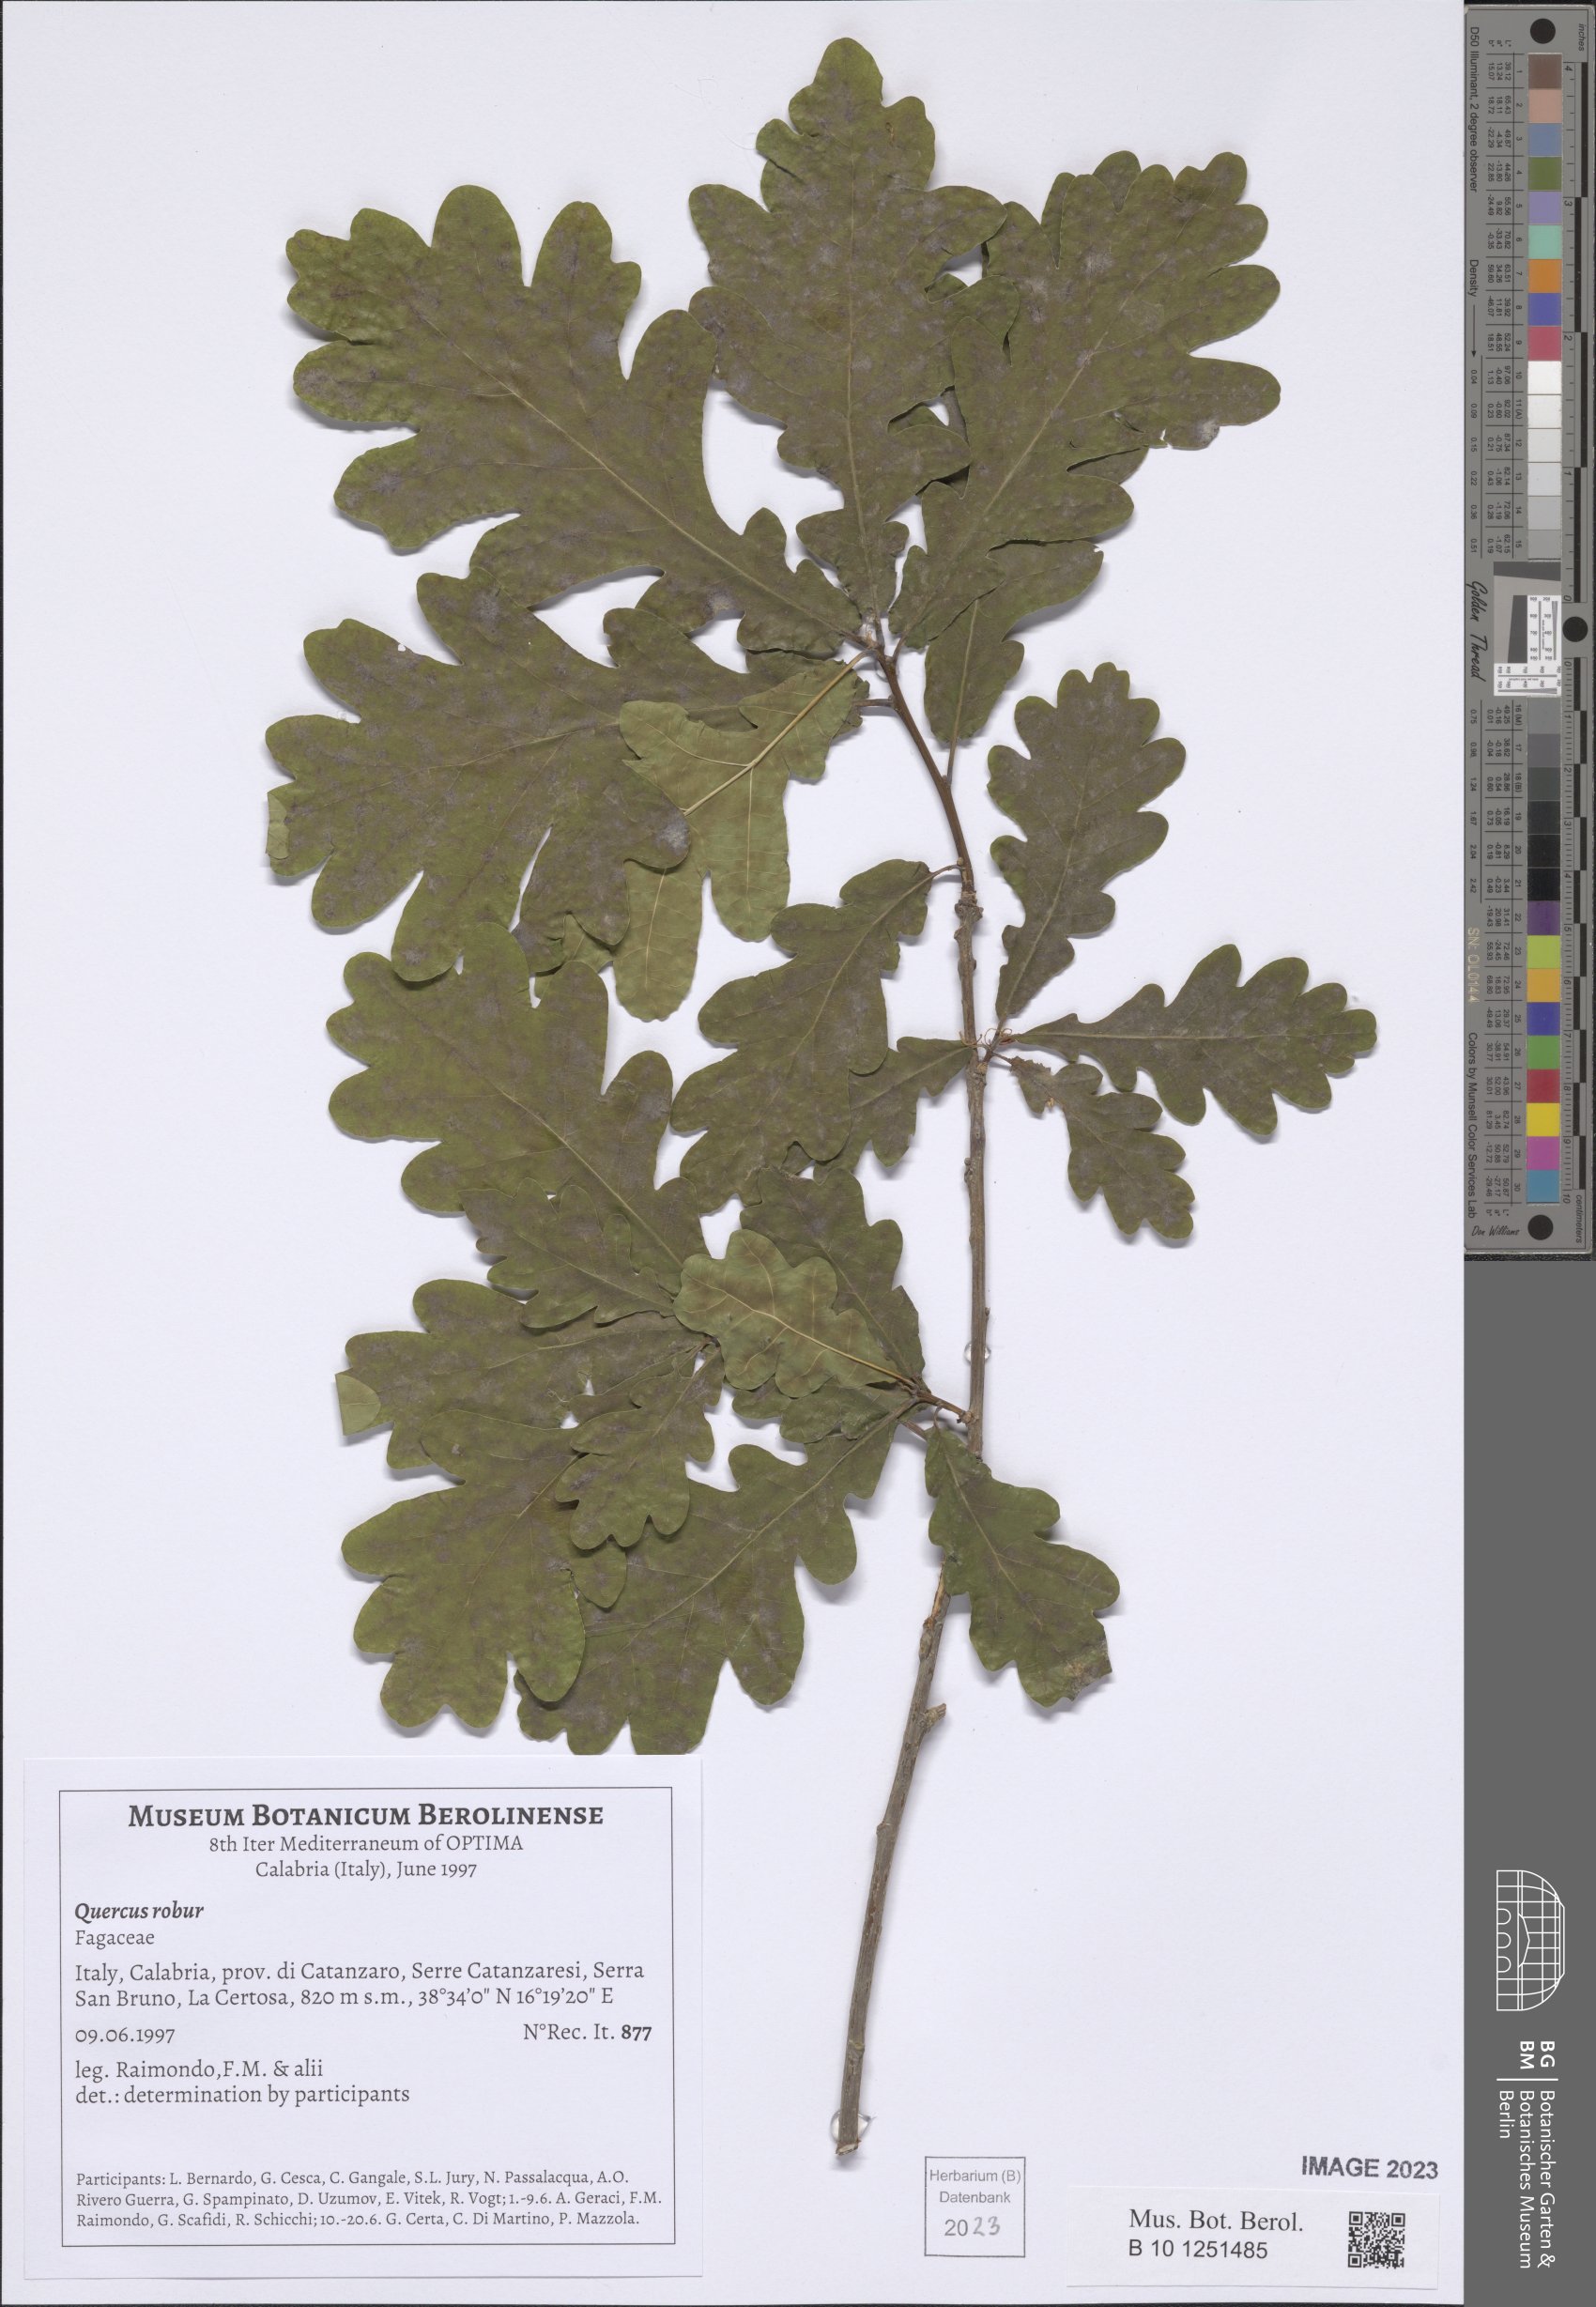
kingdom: Plantae
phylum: Tracheophyta
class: Magnoliopsida
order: Fagales
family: Fagaceae
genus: Quercus
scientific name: Quercus robur
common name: Pedunculate oak
